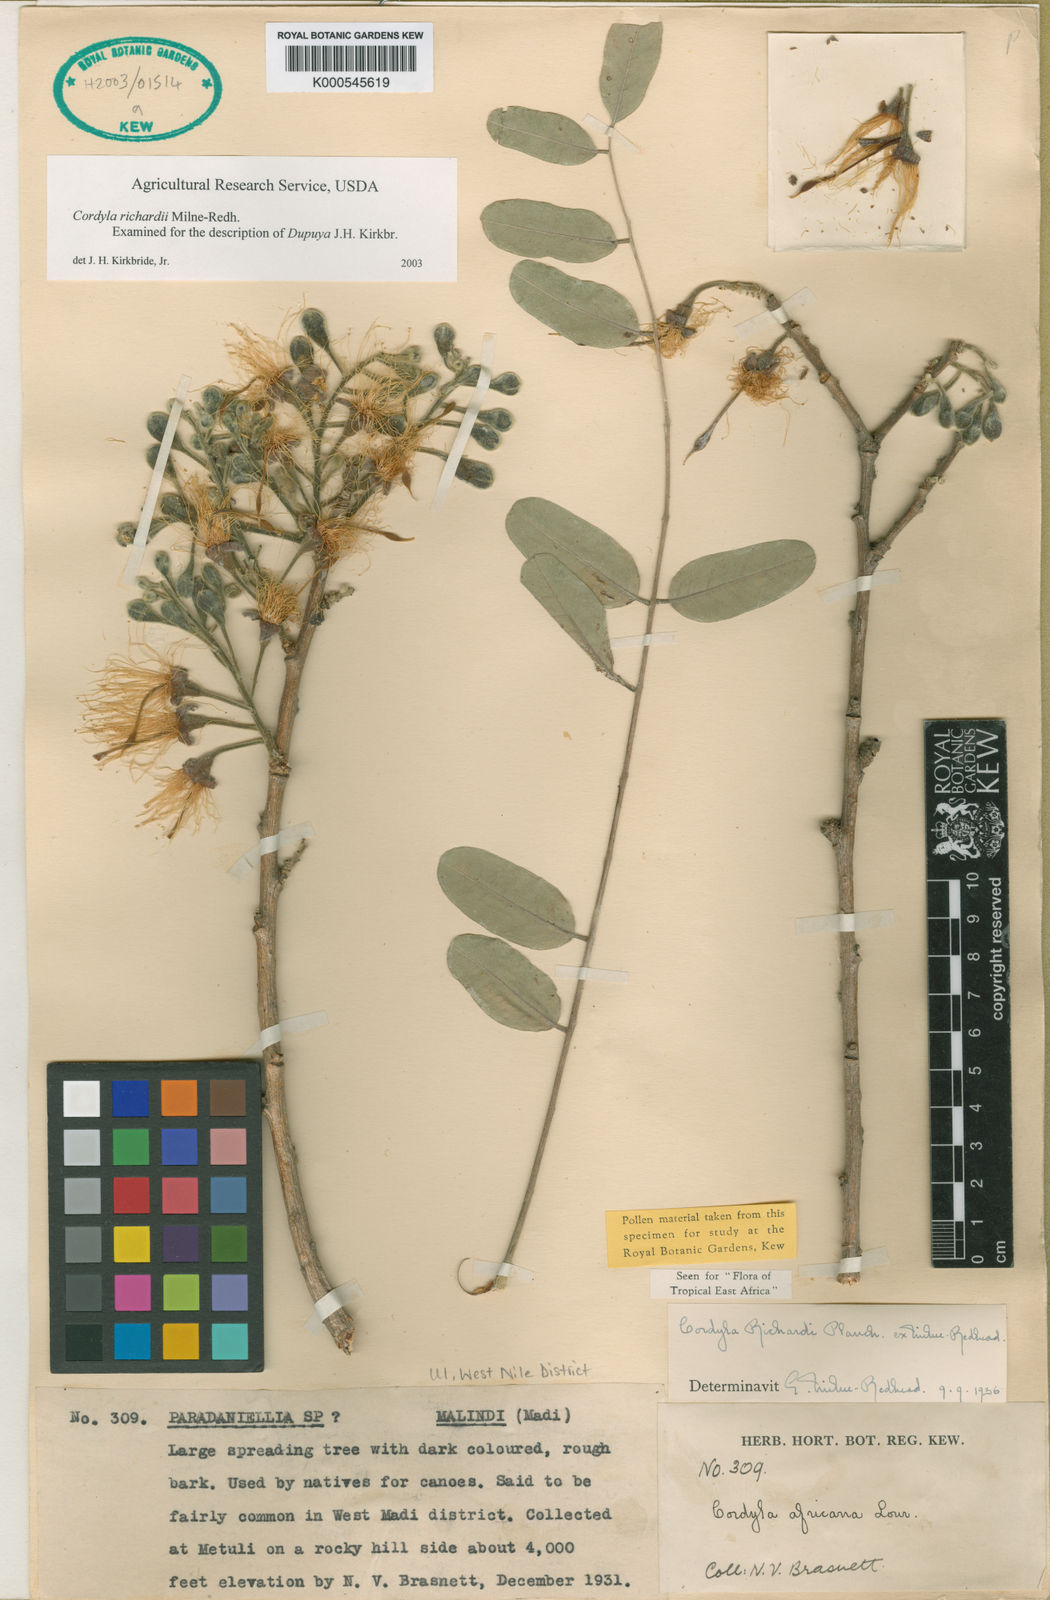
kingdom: Plantae
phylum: Tracheophyta
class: Magnoliopsida
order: Fabales
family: Fabaceae
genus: Cordyla
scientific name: Cordyla
